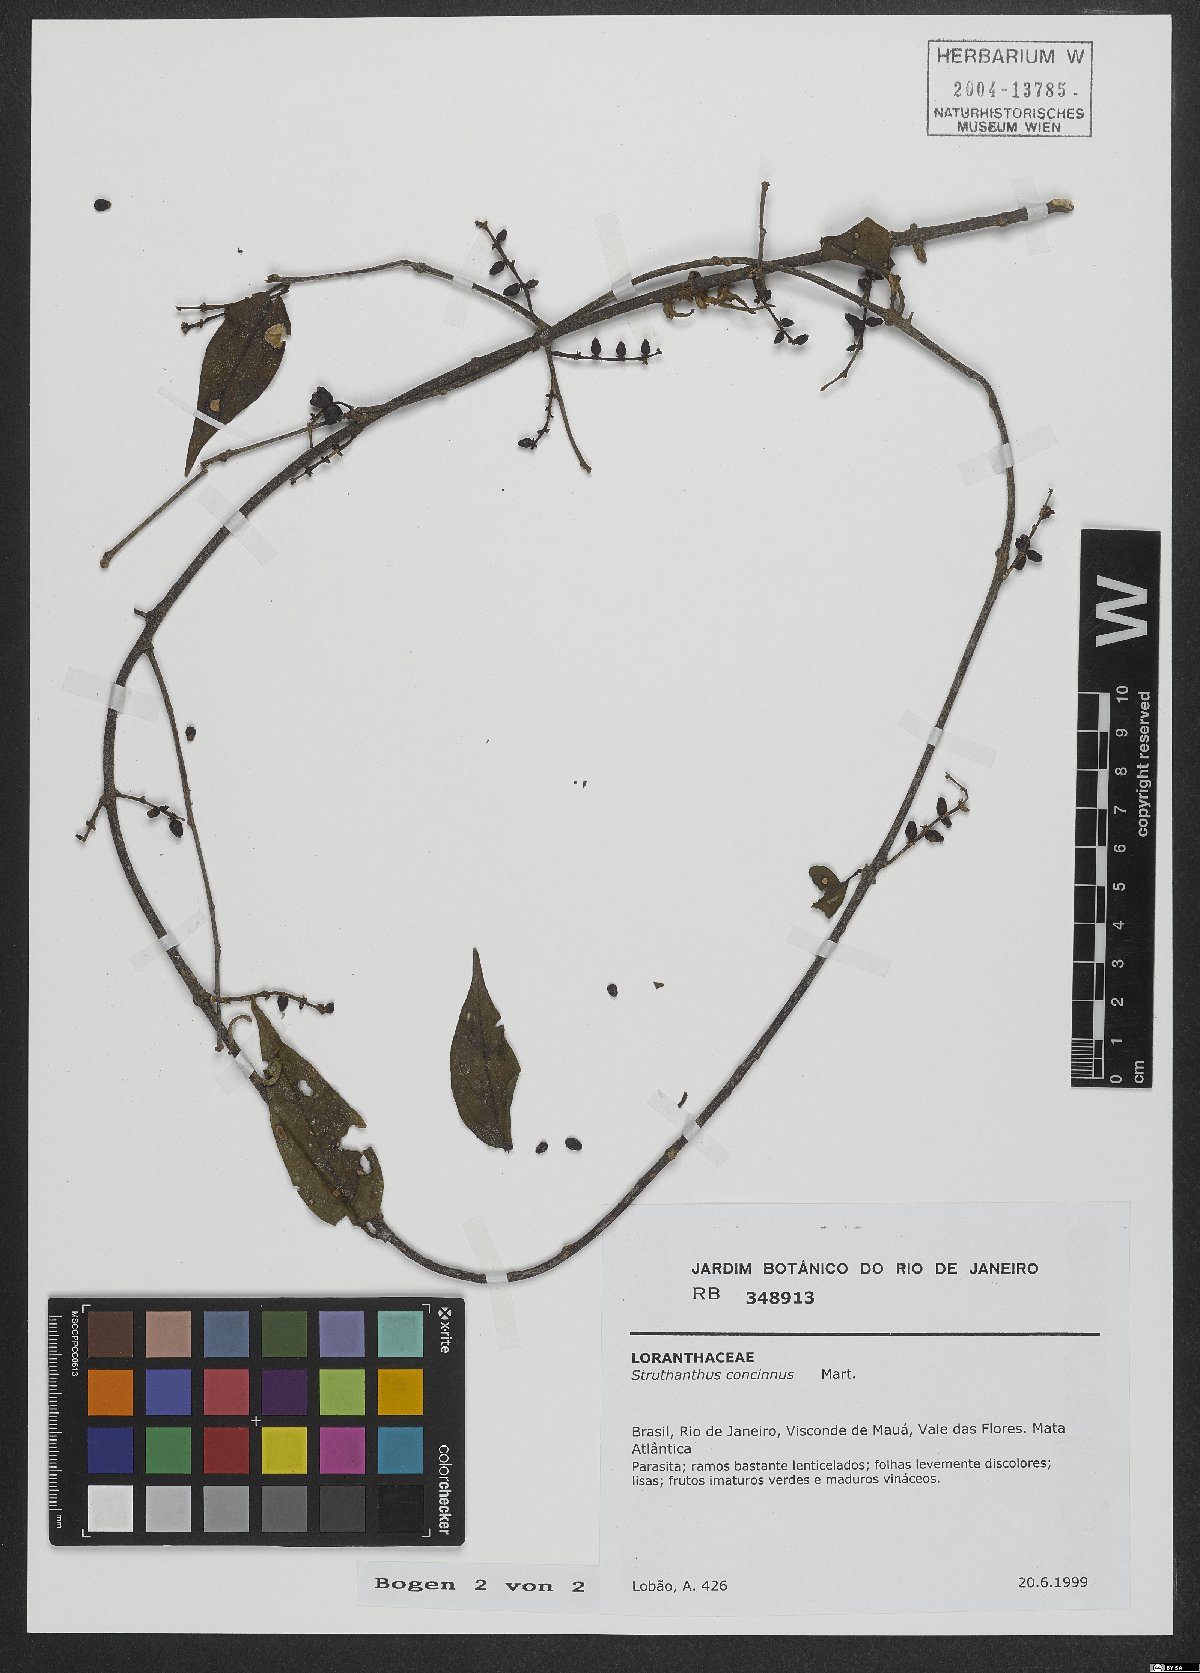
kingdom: Plantae
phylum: Tracheophyta
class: Magnoliopsida
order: Santalales
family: Loranthaceae
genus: Struthanthus
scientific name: Struthanthus concinnus
